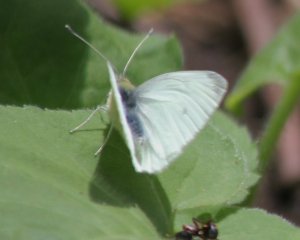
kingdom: Animalia
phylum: Arthropoda
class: Insecta
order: Lepidoptera
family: Pieridae
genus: Pieris
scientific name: Pieris rapae
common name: Cabbage White
